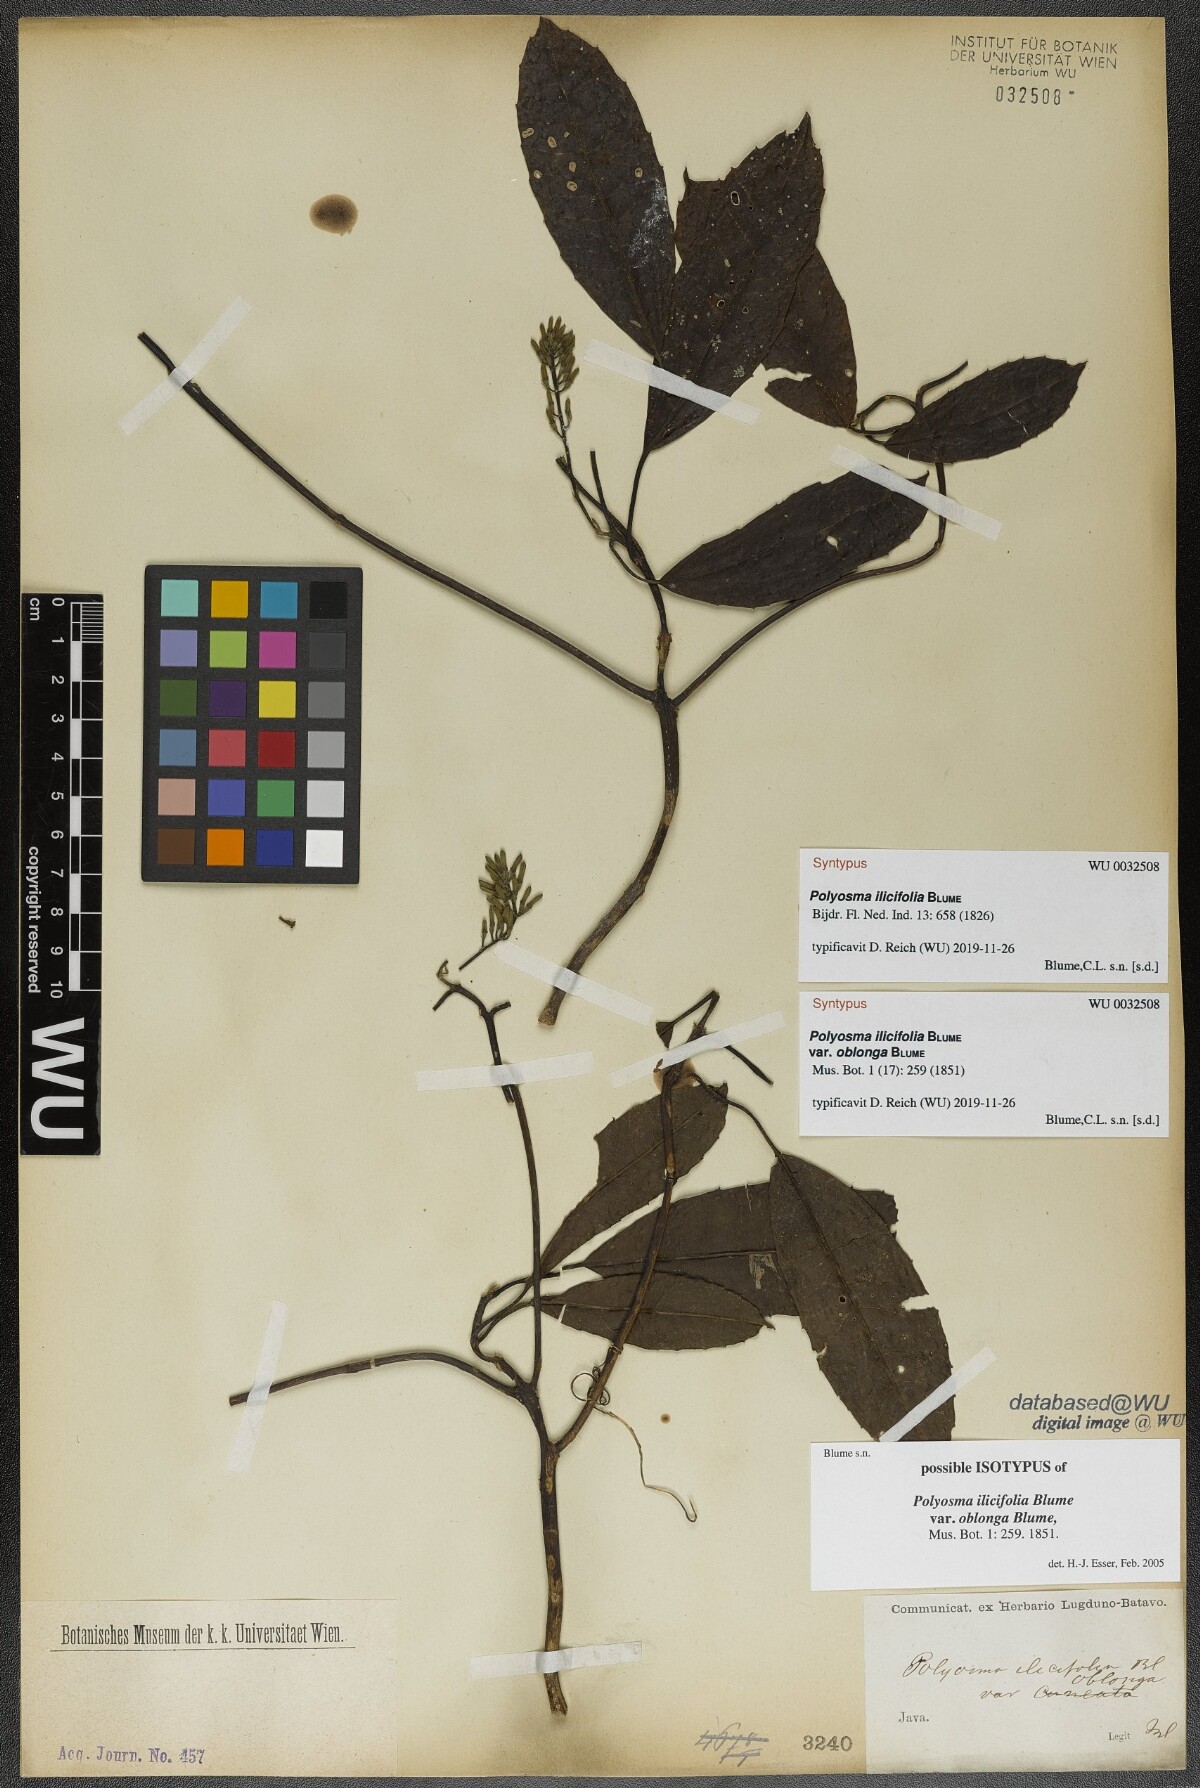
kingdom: Plantae
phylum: Tracheophyta
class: Magnoliopsida
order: Escalloniales
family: Escalloniaceae
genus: Polyosma
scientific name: Polyosma ilicifolia
